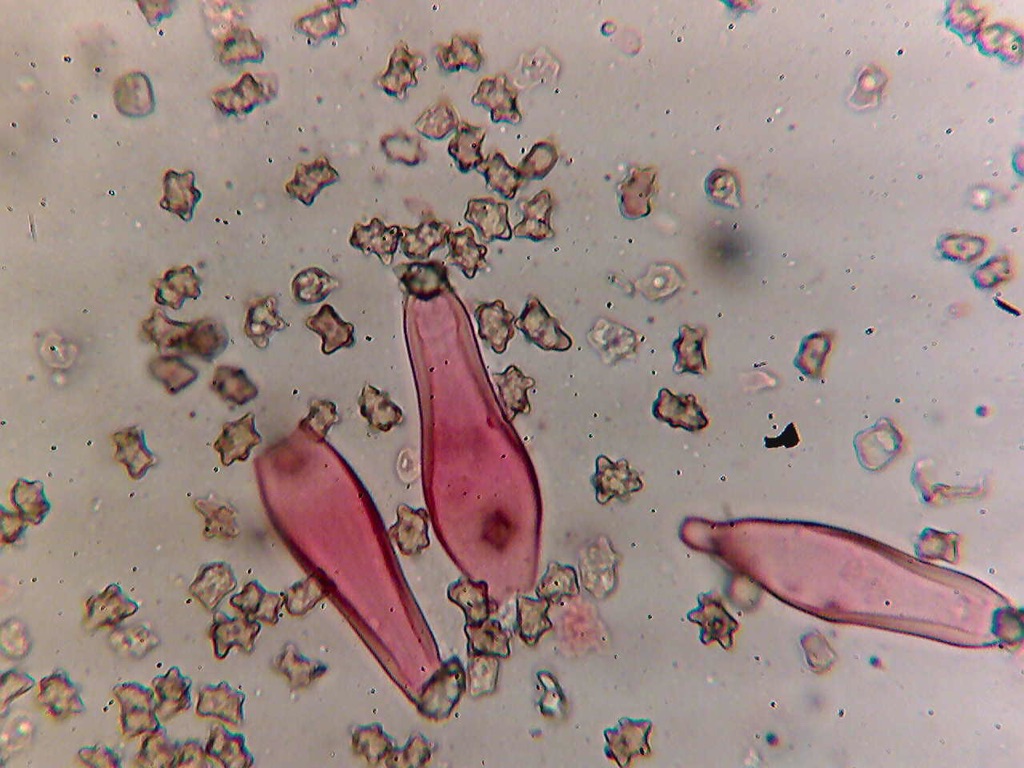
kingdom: Fungi
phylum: Basidiomycota
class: Agaricomycetes
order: Agaricales
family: Inocybaceae
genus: Inocybe
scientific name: Inocybe
